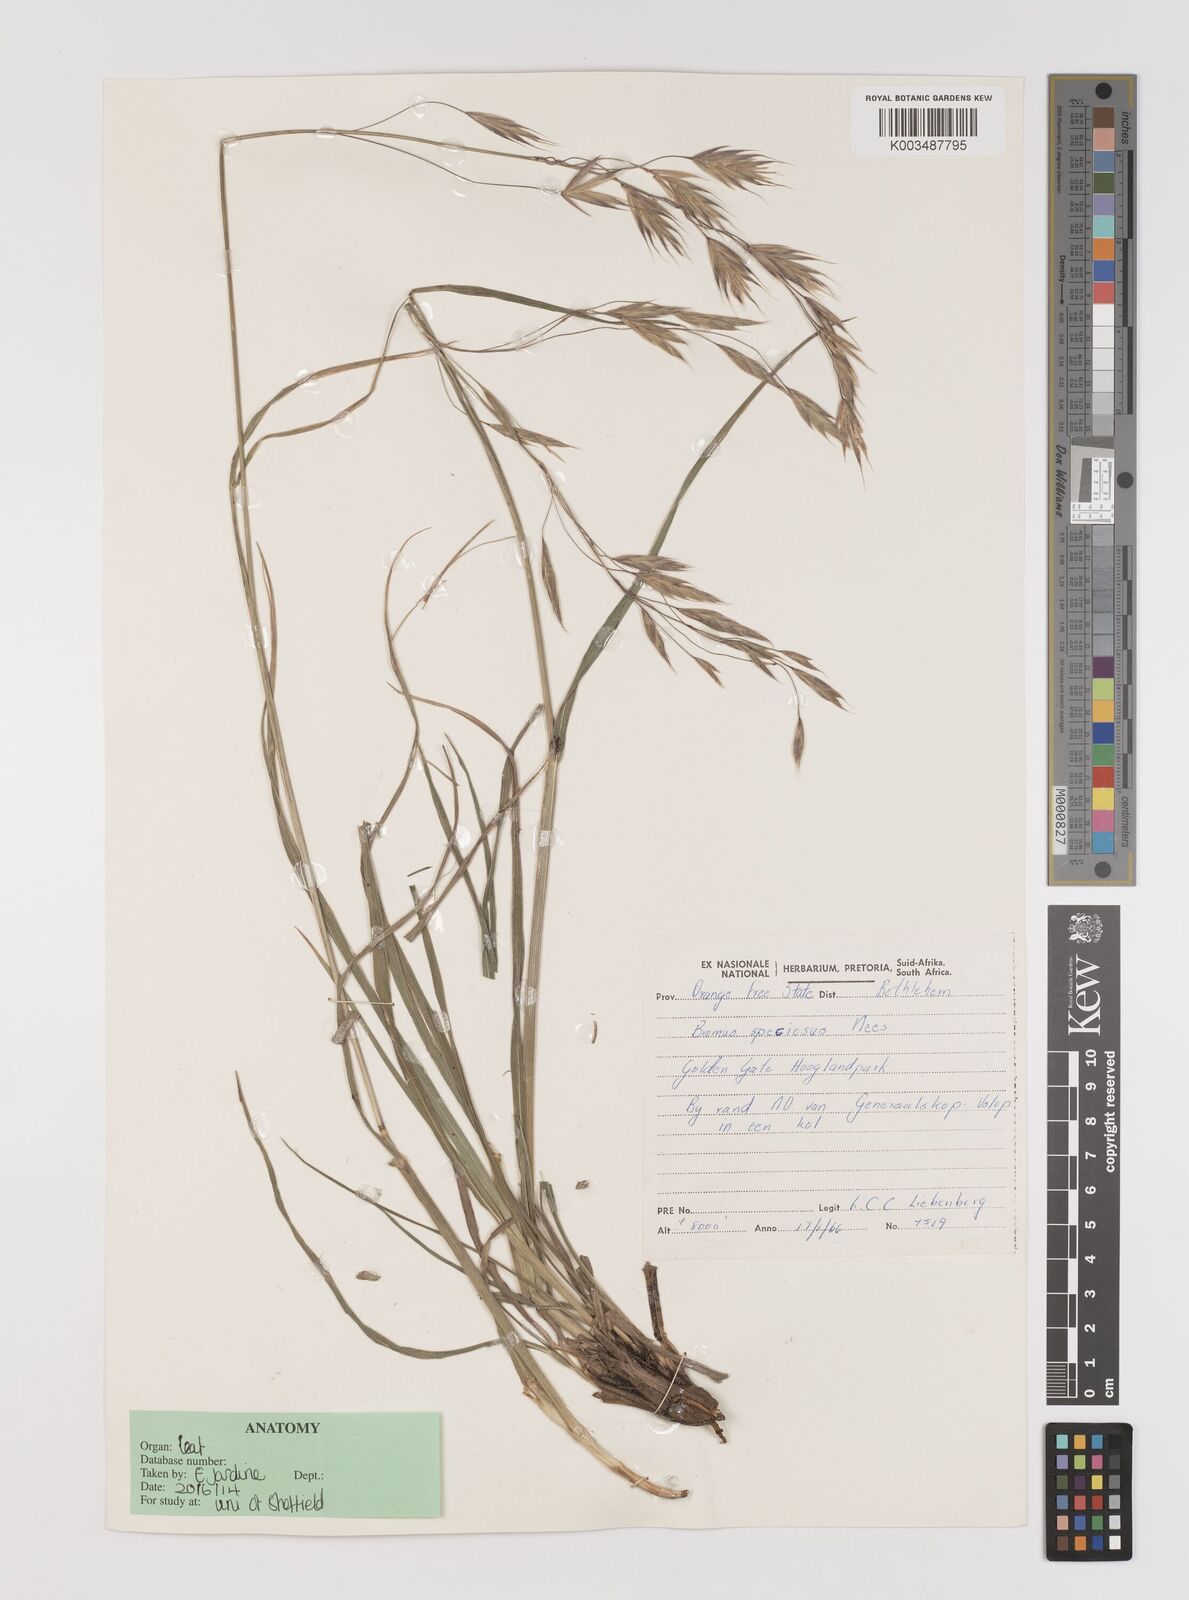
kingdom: Plantae
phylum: Tracheophyta
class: Liliopsida
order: Poales
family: Poaceae
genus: Bromus
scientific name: Bromus speciosus
